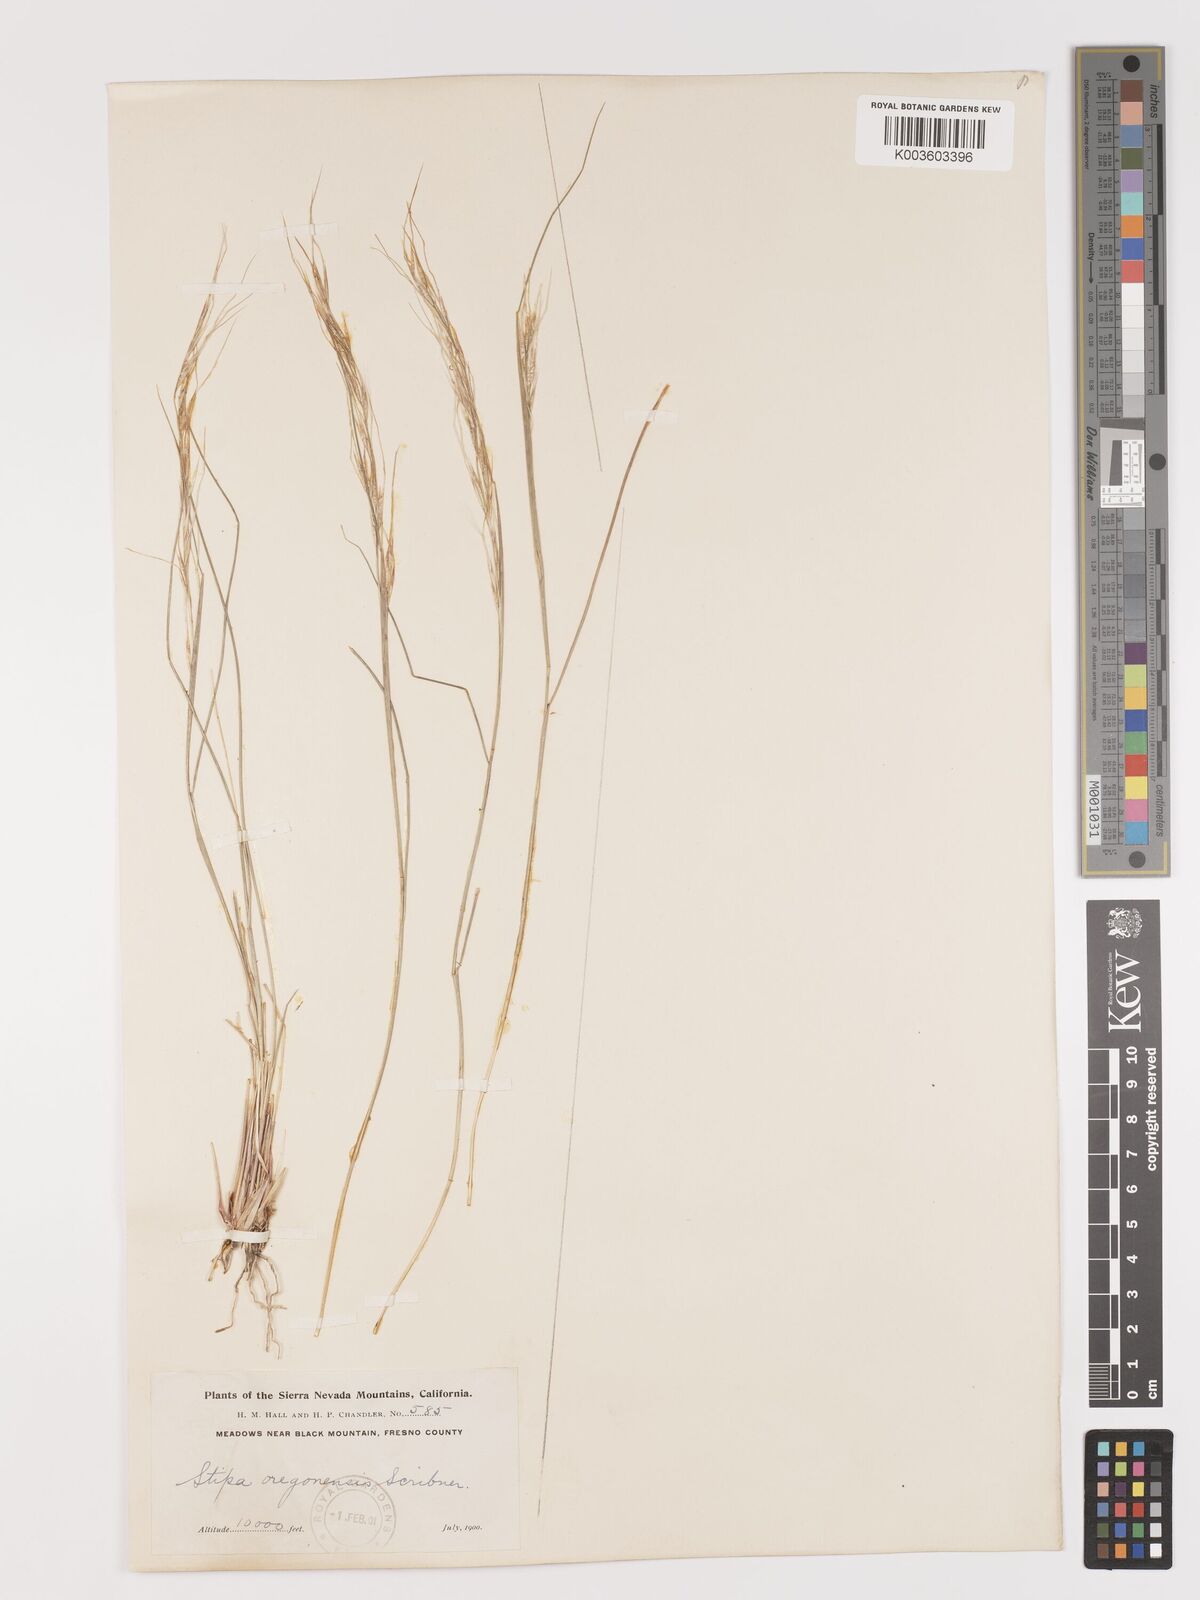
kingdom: Plantae
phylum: Tracheophyta
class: Liliopsida
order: Poales
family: Poaceae
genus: Eriocoma
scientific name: Eriocoma thurberiana
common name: Thurber's needlegrass
